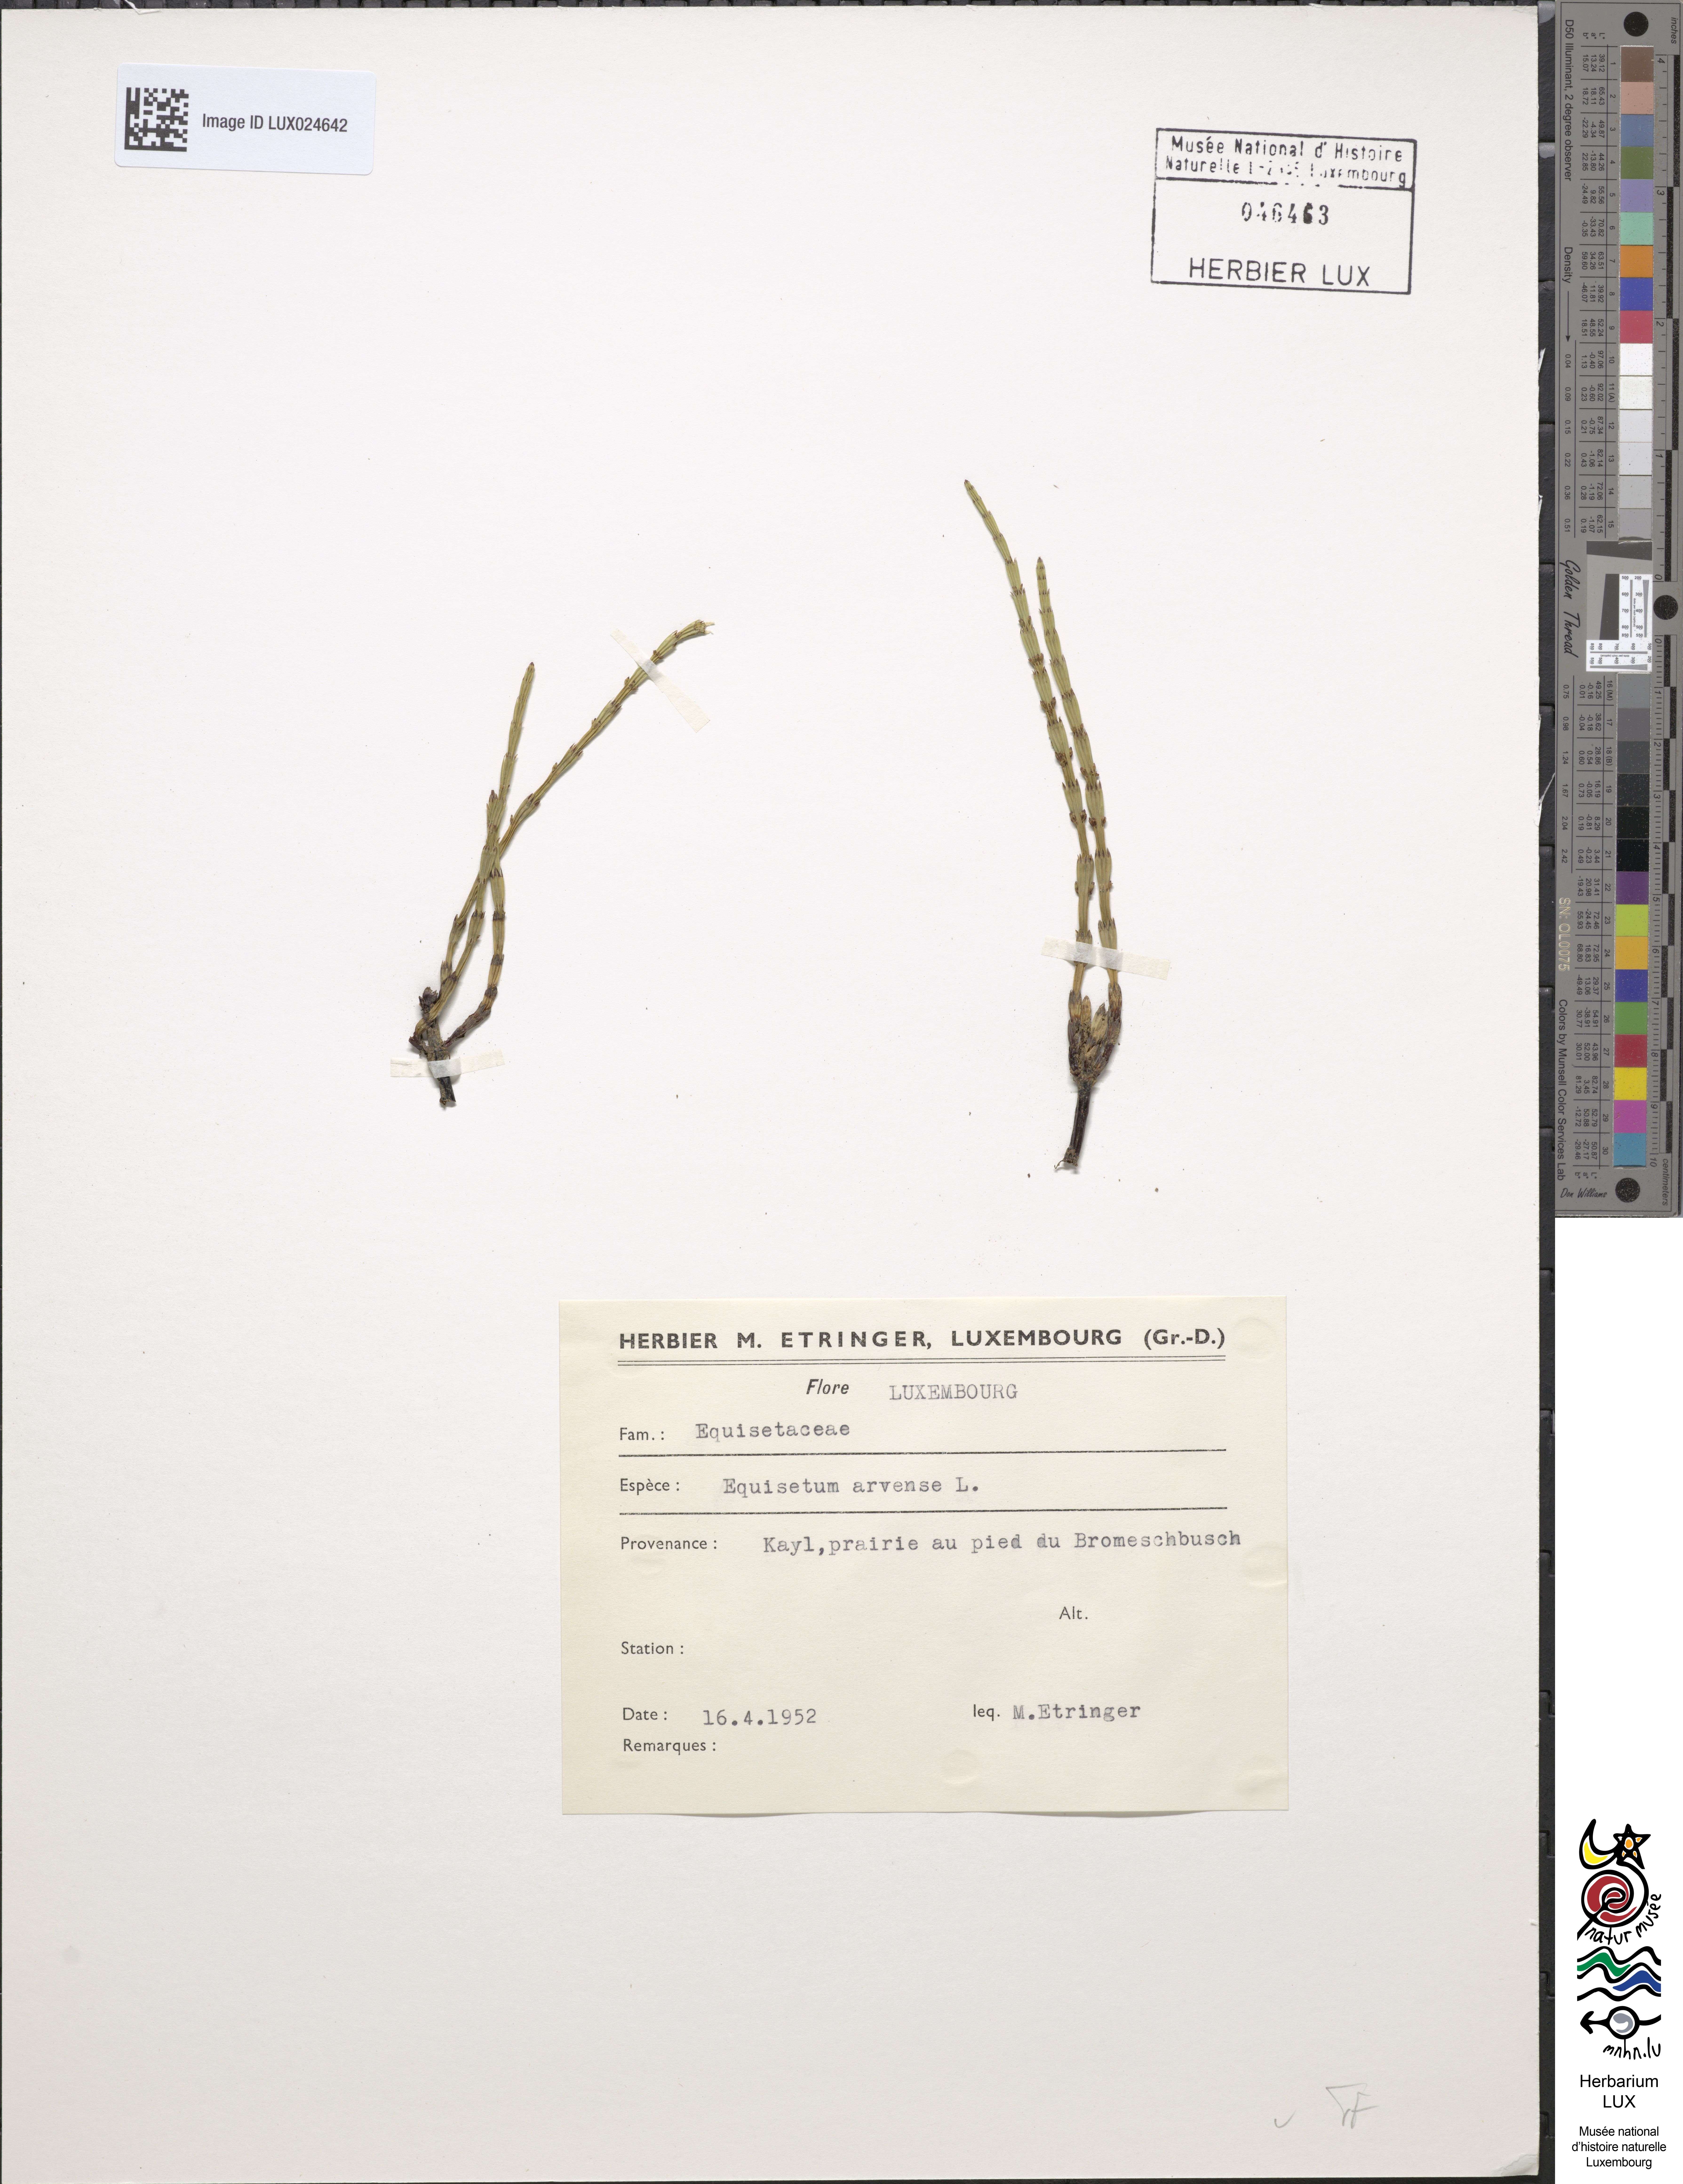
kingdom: Plantae
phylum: Tracheophyta
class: Polypodiopsida
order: Equisetales
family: Equisetaceae
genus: Equisetum
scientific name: Equisetum arvense
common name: Field horsetail
